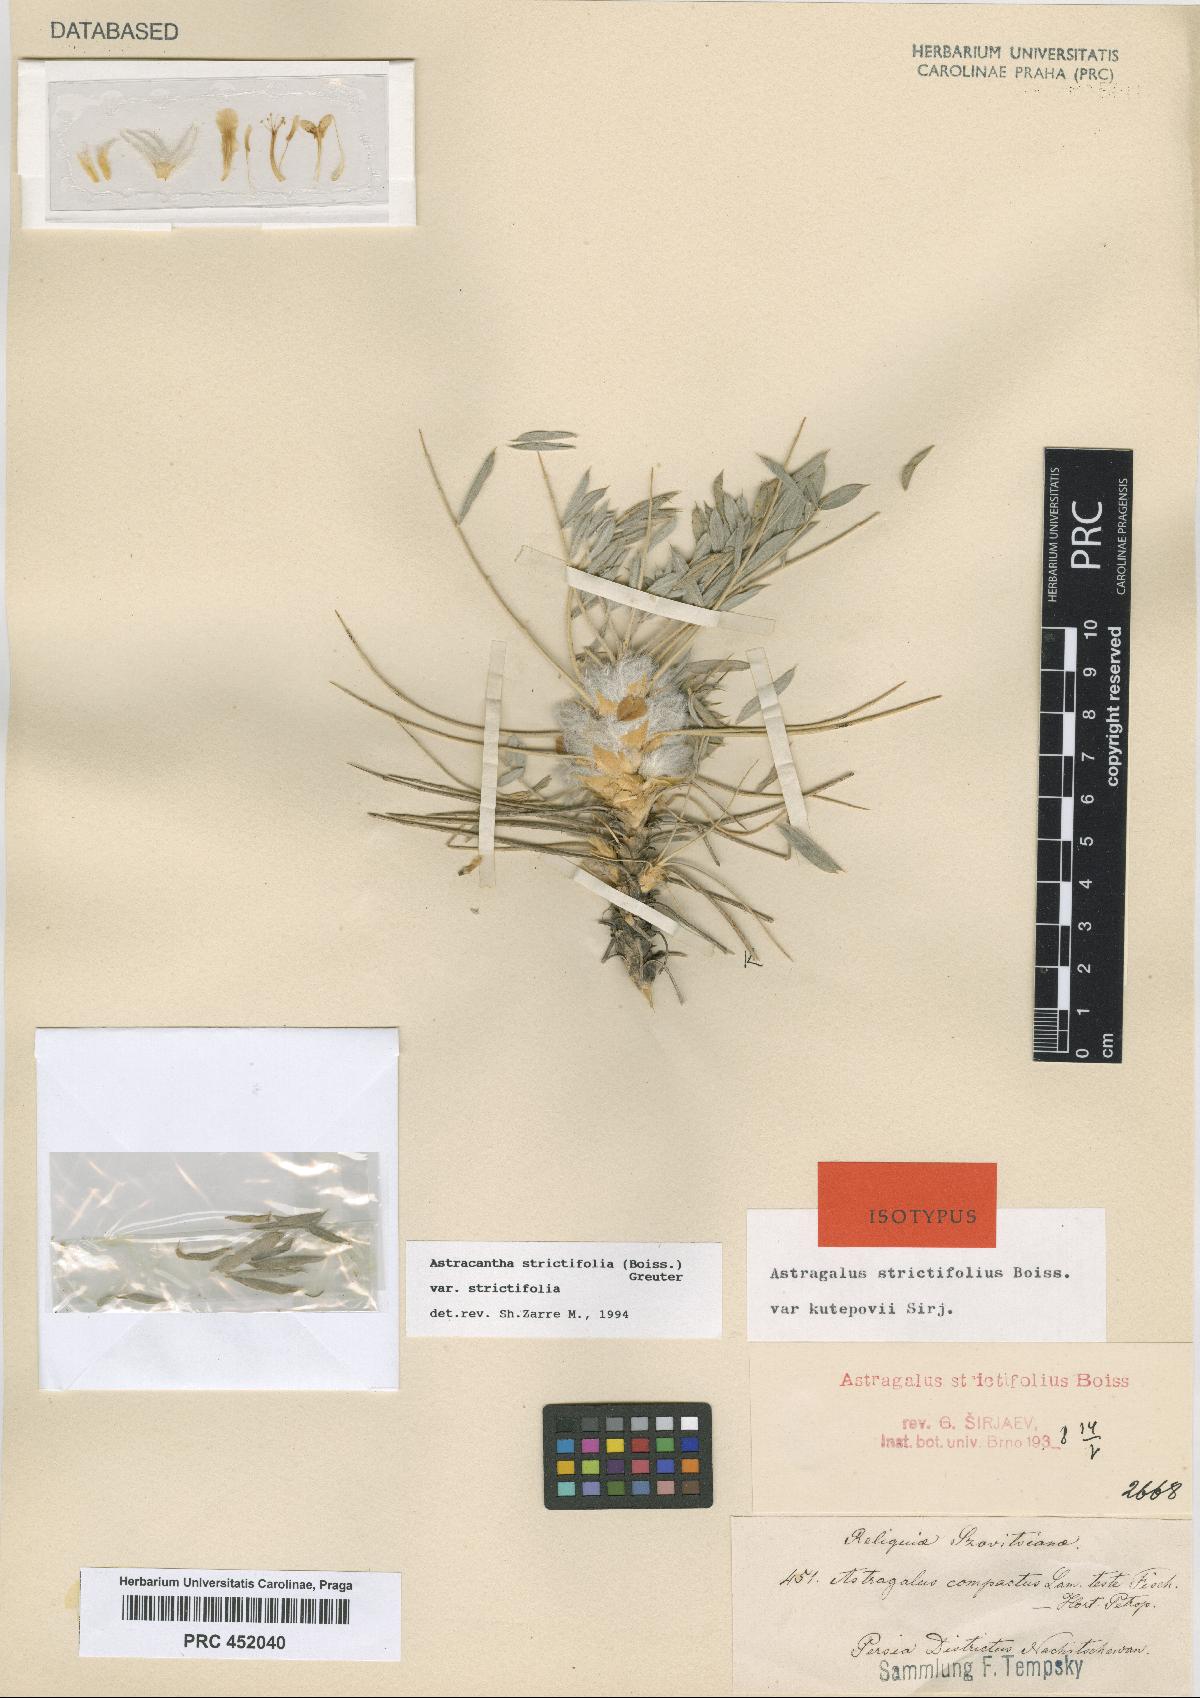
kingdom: Plantae
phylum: Tracheophyta
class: Magnoliopsida
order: Fabales
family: Fabaceae
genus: Astragalus
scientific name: Astragalus compactus
